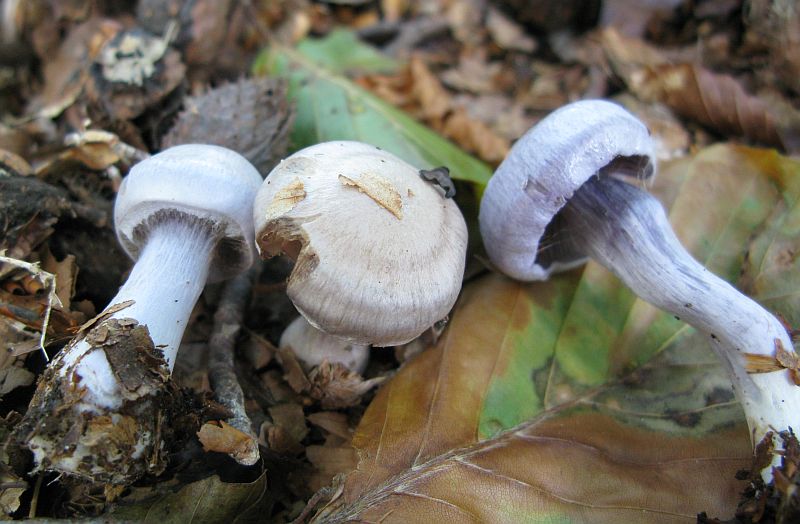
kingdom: Fungi
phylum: Basidiomycota
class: Agaricomycetes
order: Agaricales
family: Cortinariaceae
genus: Cortinarius
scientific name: Cortinarius alboviolaceus
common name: lysviolet slørhat
